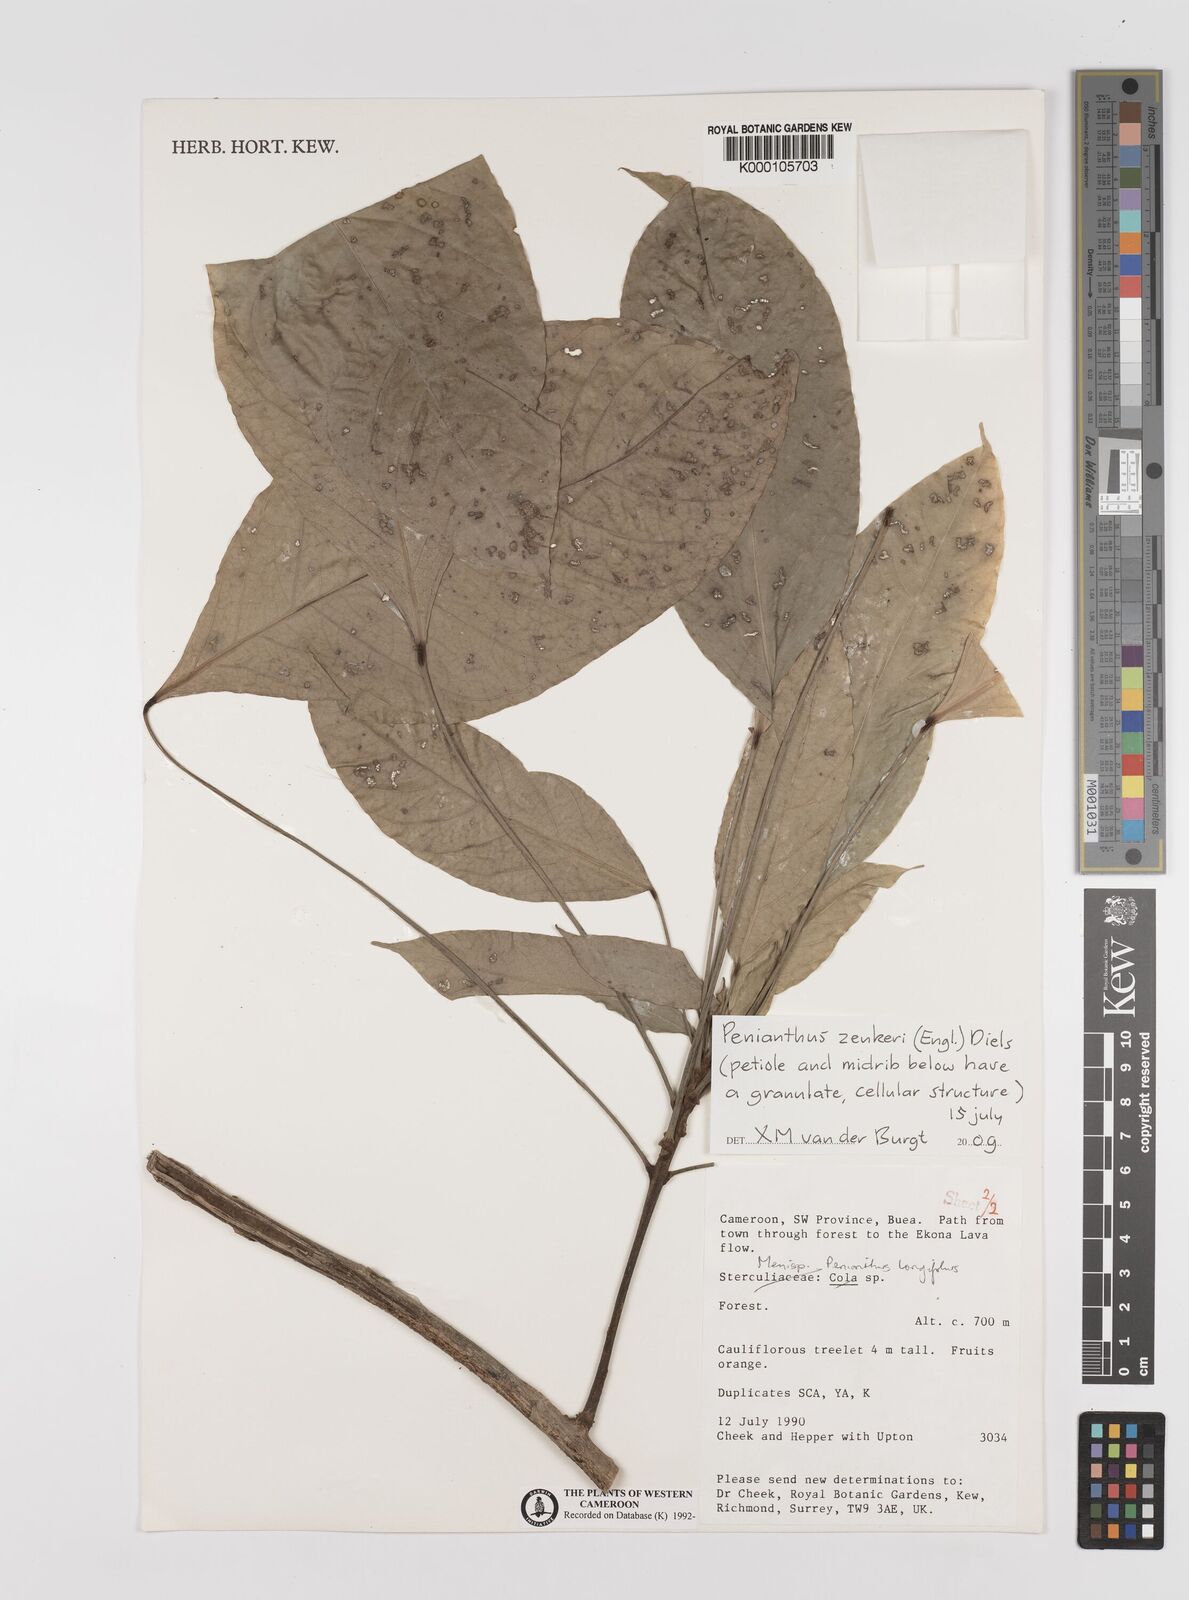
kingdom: Plantae
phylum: Tracheophyta
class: Magnoliopsida
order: Ranunculales
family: Menispermaceae
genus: Penianthus
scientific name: Penianthus zenkeri
